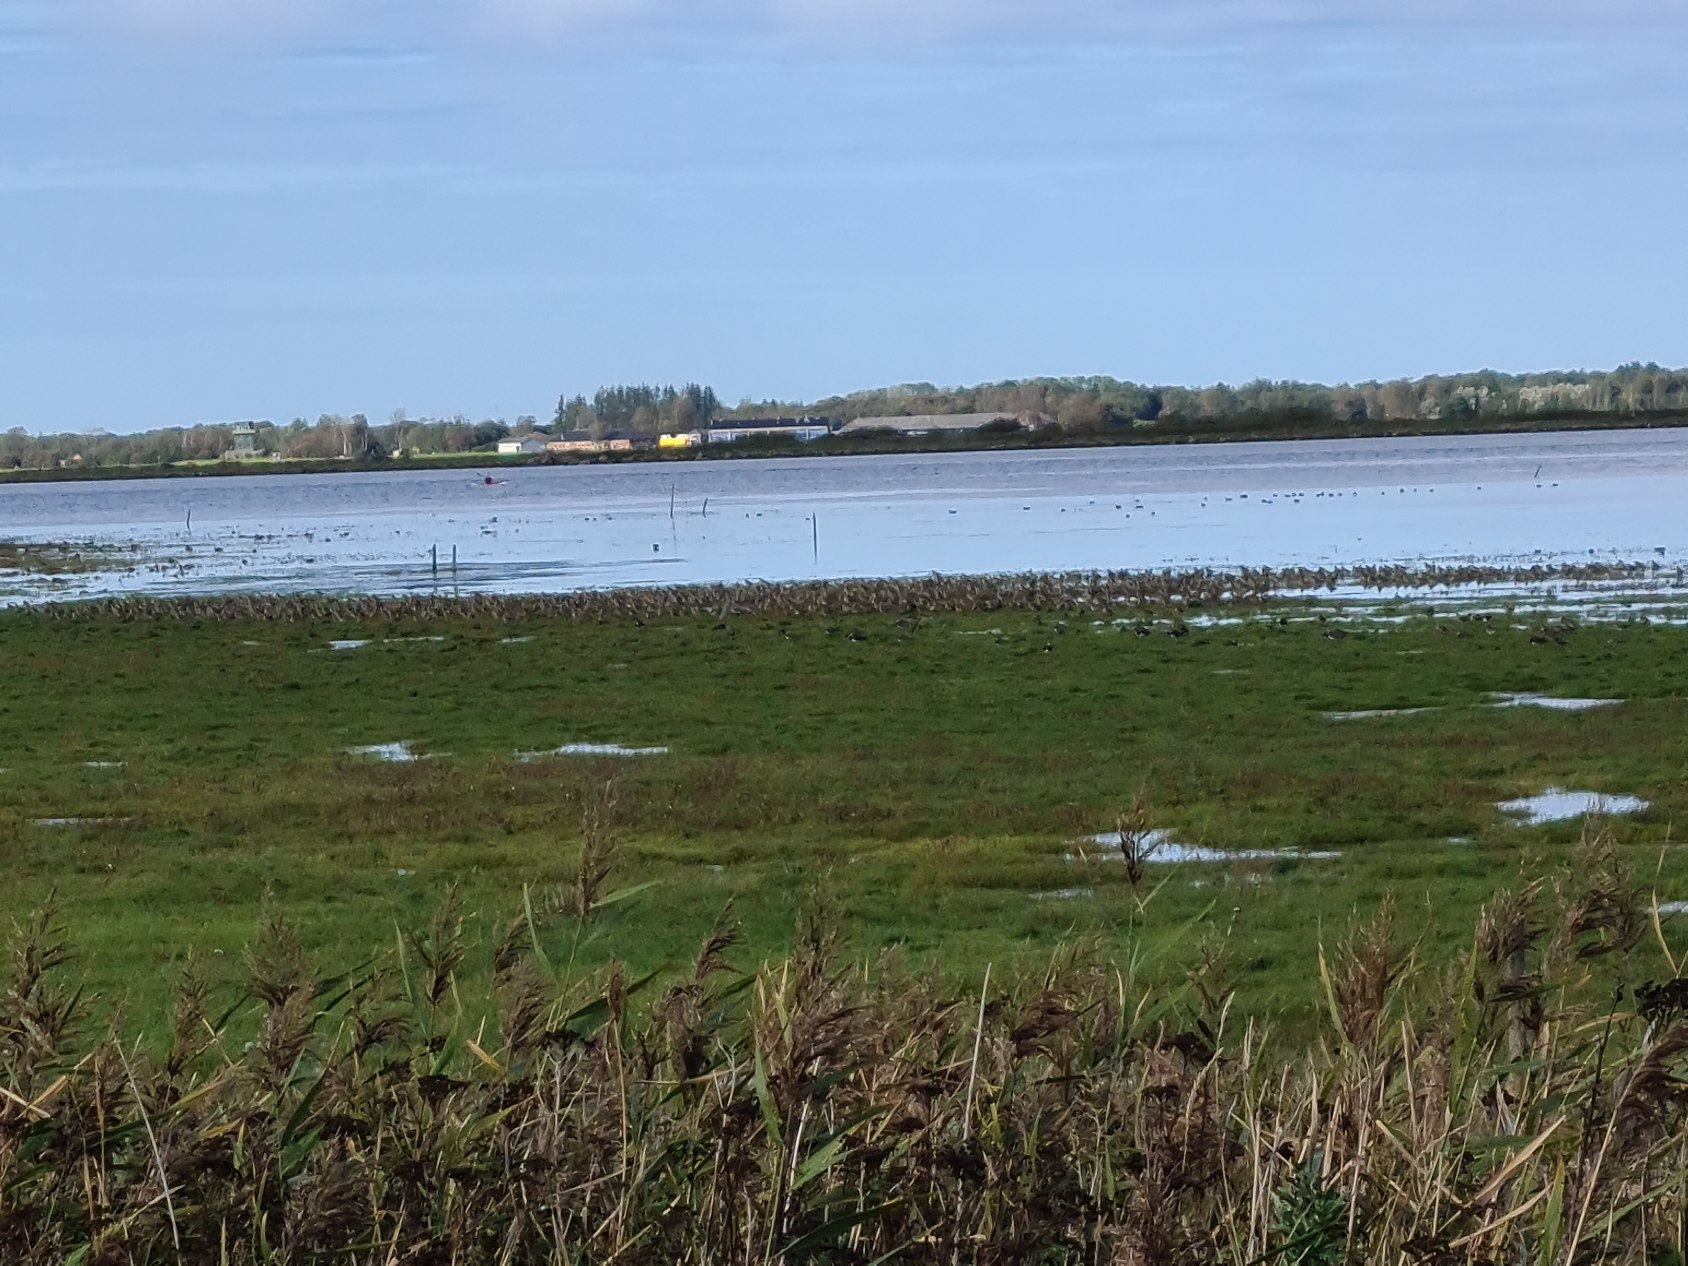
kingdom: Animalia
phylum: Chordata
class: Aves
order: Charadriiformes
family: Charadriidae
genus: Pluvialis
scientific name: Pluvialis apricaria
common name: Hjejle
